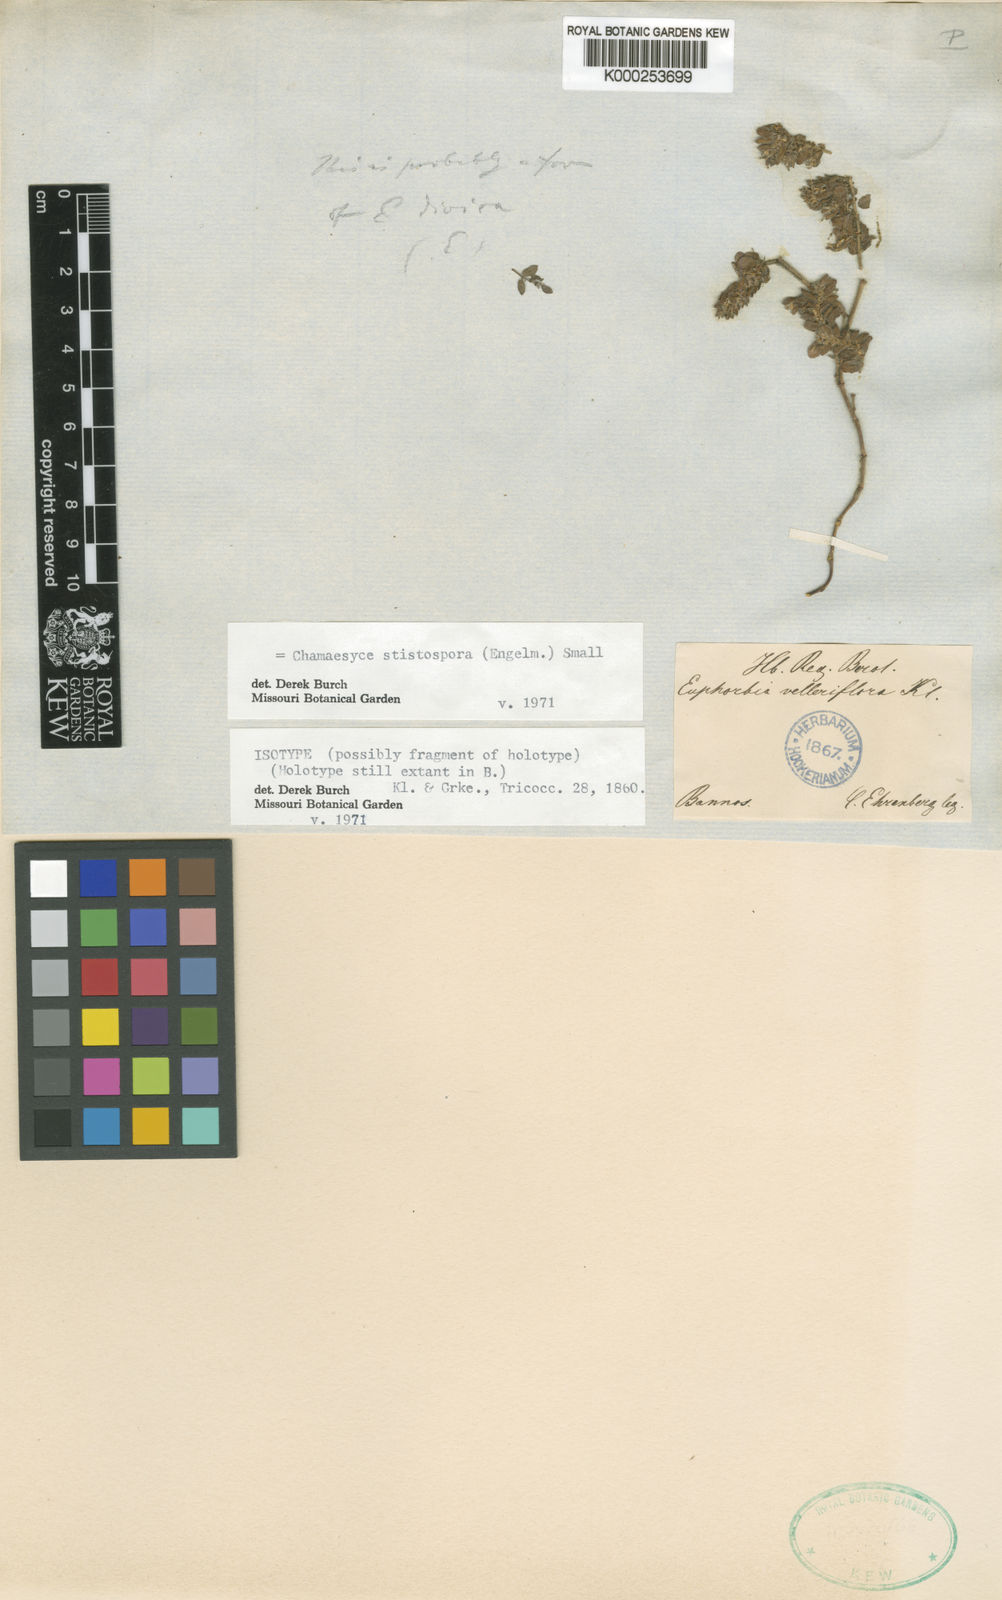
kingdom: Plantae
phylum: Tracheophyta
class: Magnoliopsida
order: Malpighiales
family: Euphorbiaceae
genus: Euphorbia
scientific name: Euphorbia velleriflora
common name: Caliche sandmat
